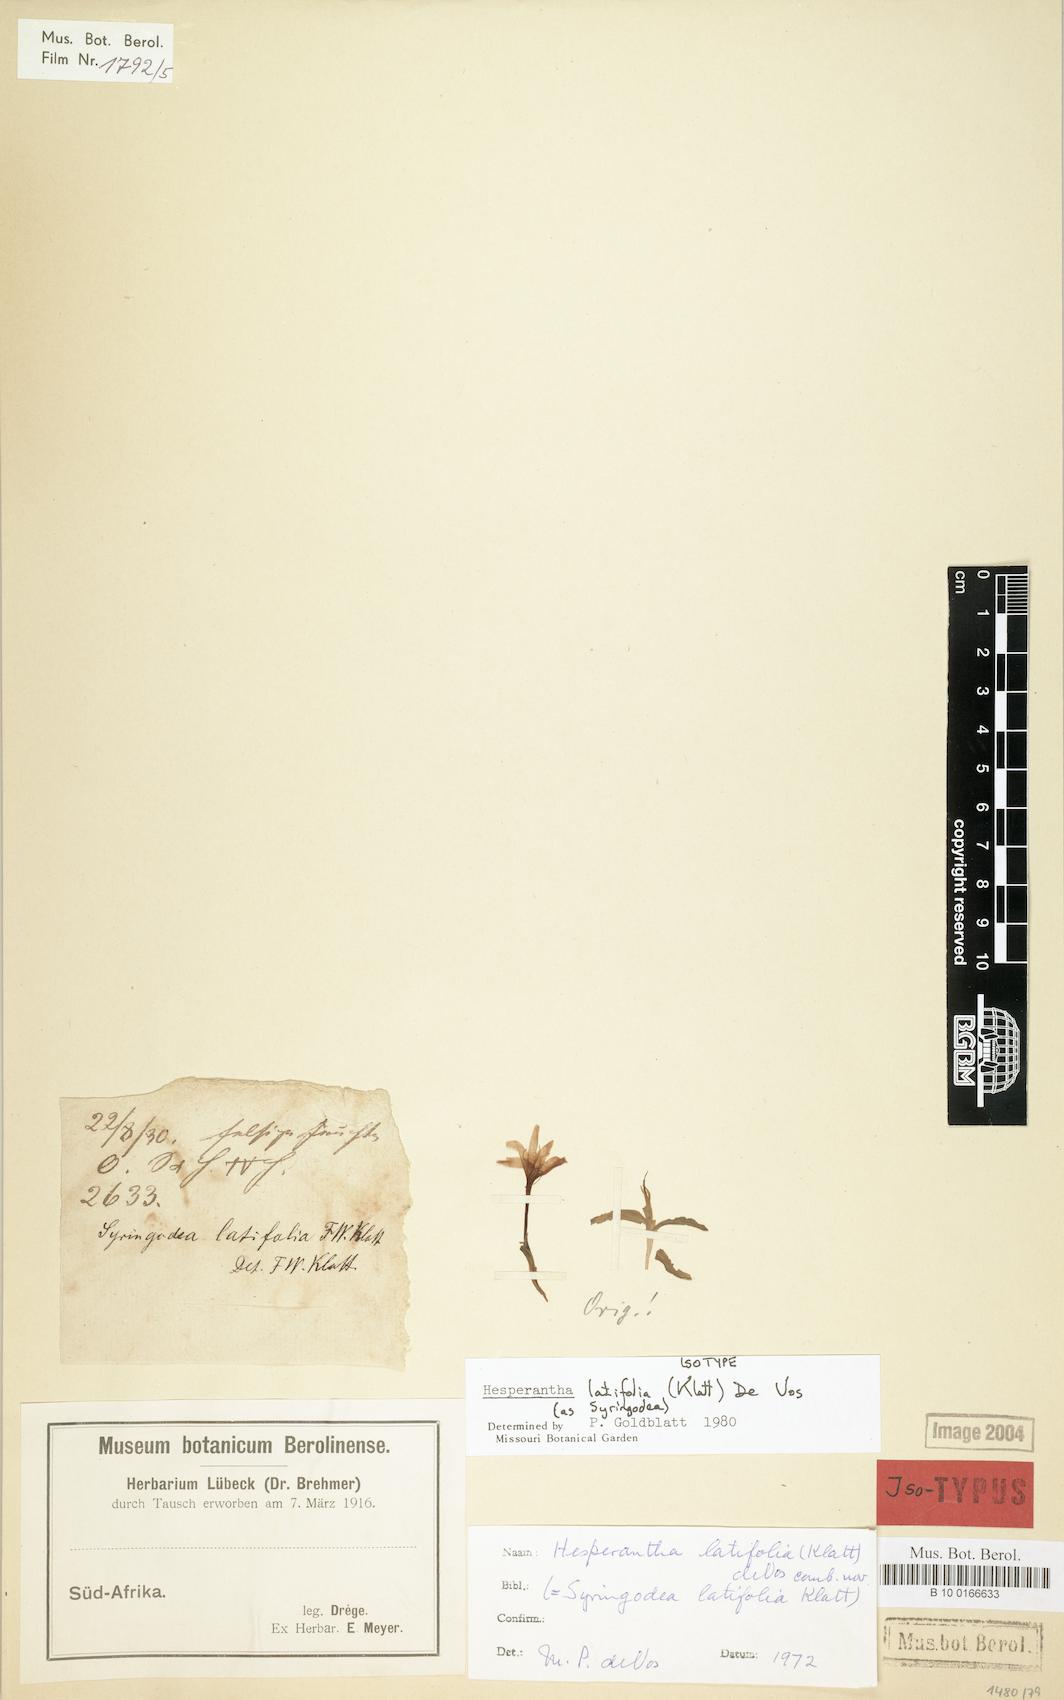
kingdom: Plantae
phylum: Tracheophyta
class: Liliopsida
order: Asparagales
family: Iridaceae
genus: Hesperantha
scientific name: Hesperantha latifolia
